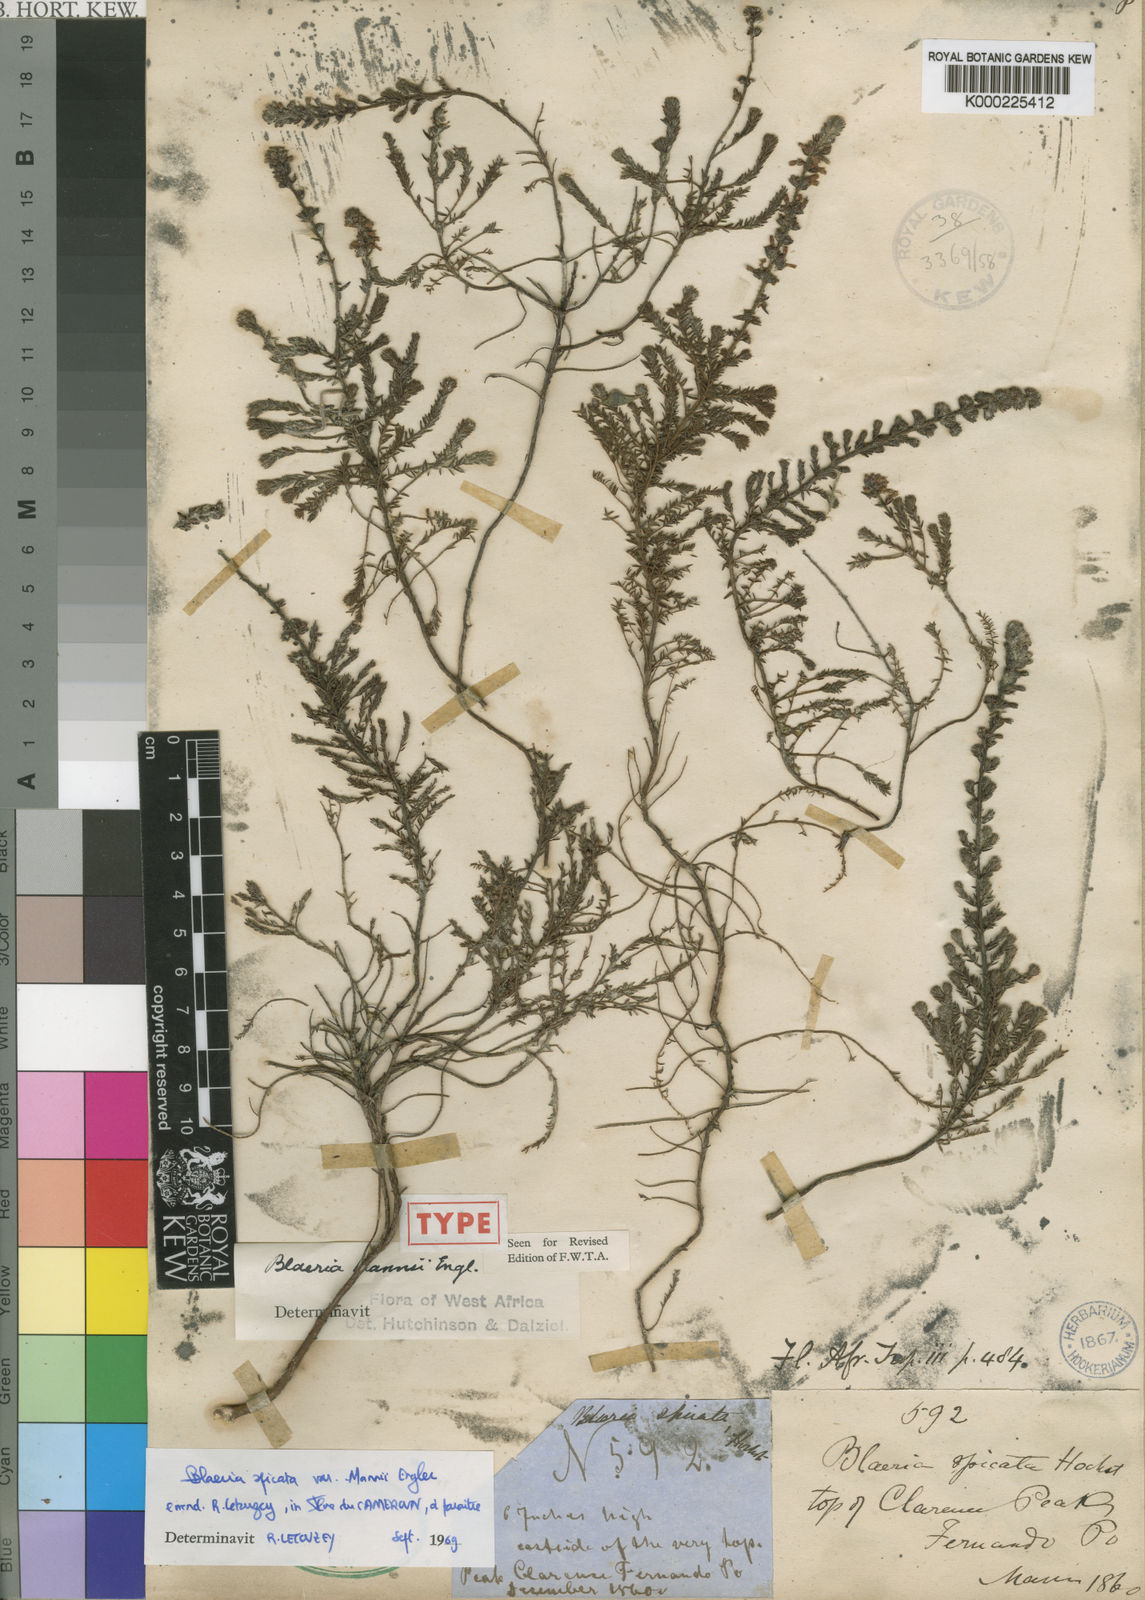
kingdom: Plantae
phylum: Tracheophyta
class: Magnoliopsida
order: Ericales
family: Ericaceae
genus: Erica
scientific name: Erica silvatica
